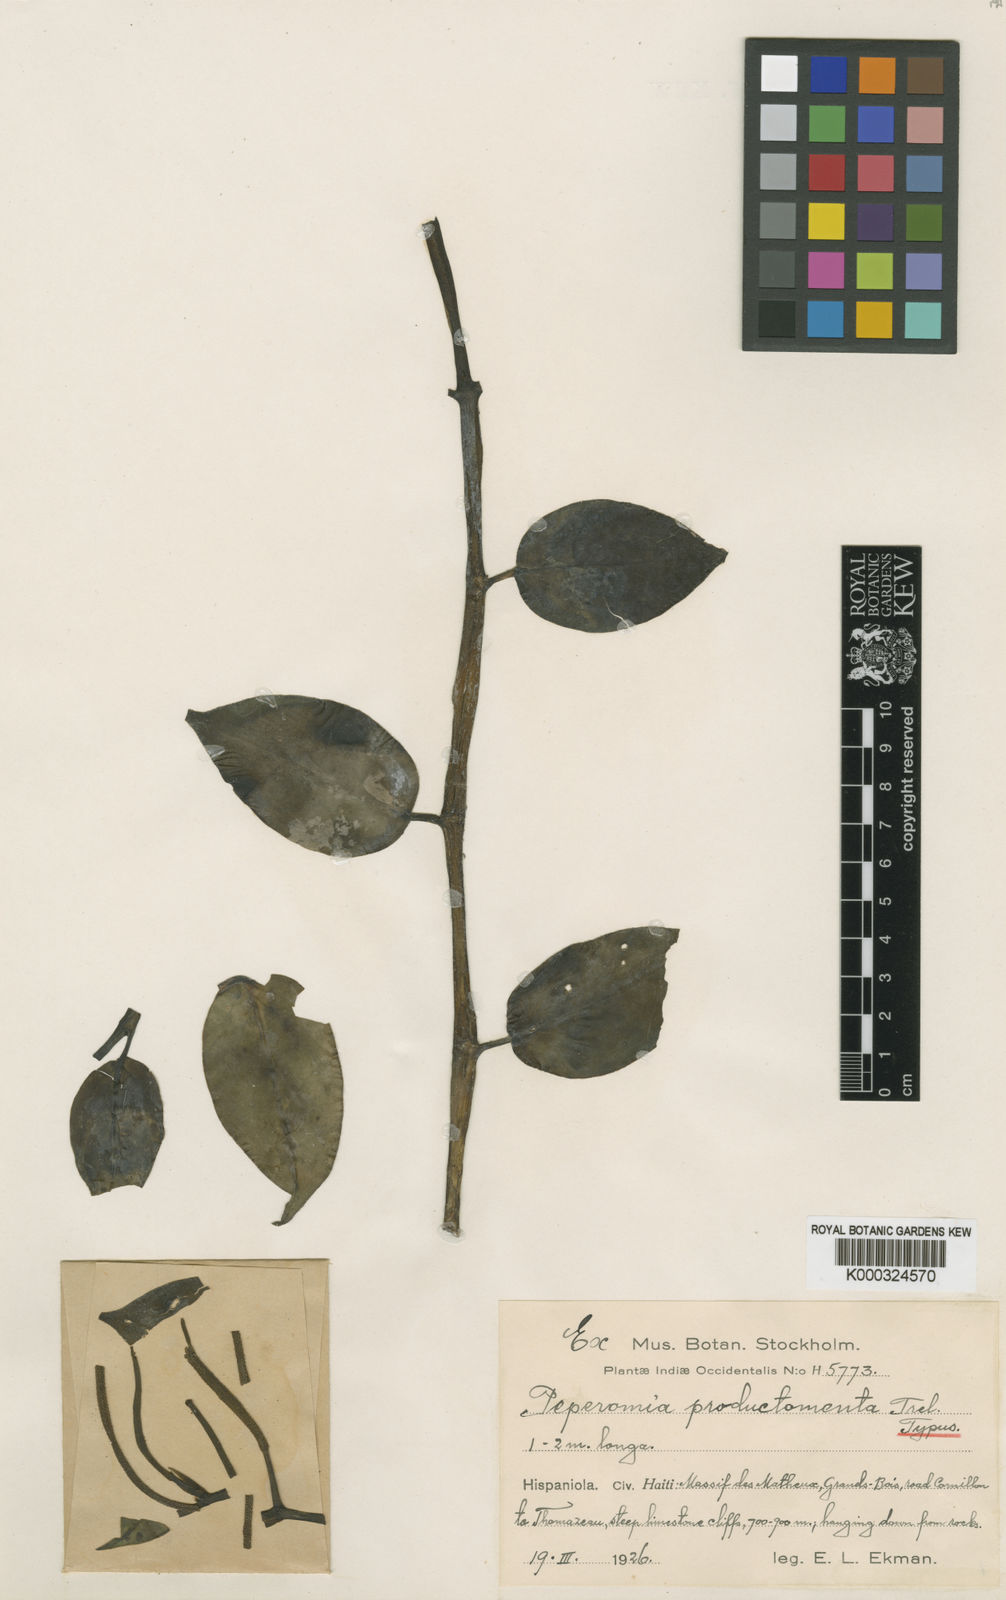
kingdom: Plantae
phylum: Tracheophyta
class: Magnoliopsida
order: Piperales
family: Piperaceae
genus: Peperomia
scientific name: Peperomia productamenta
